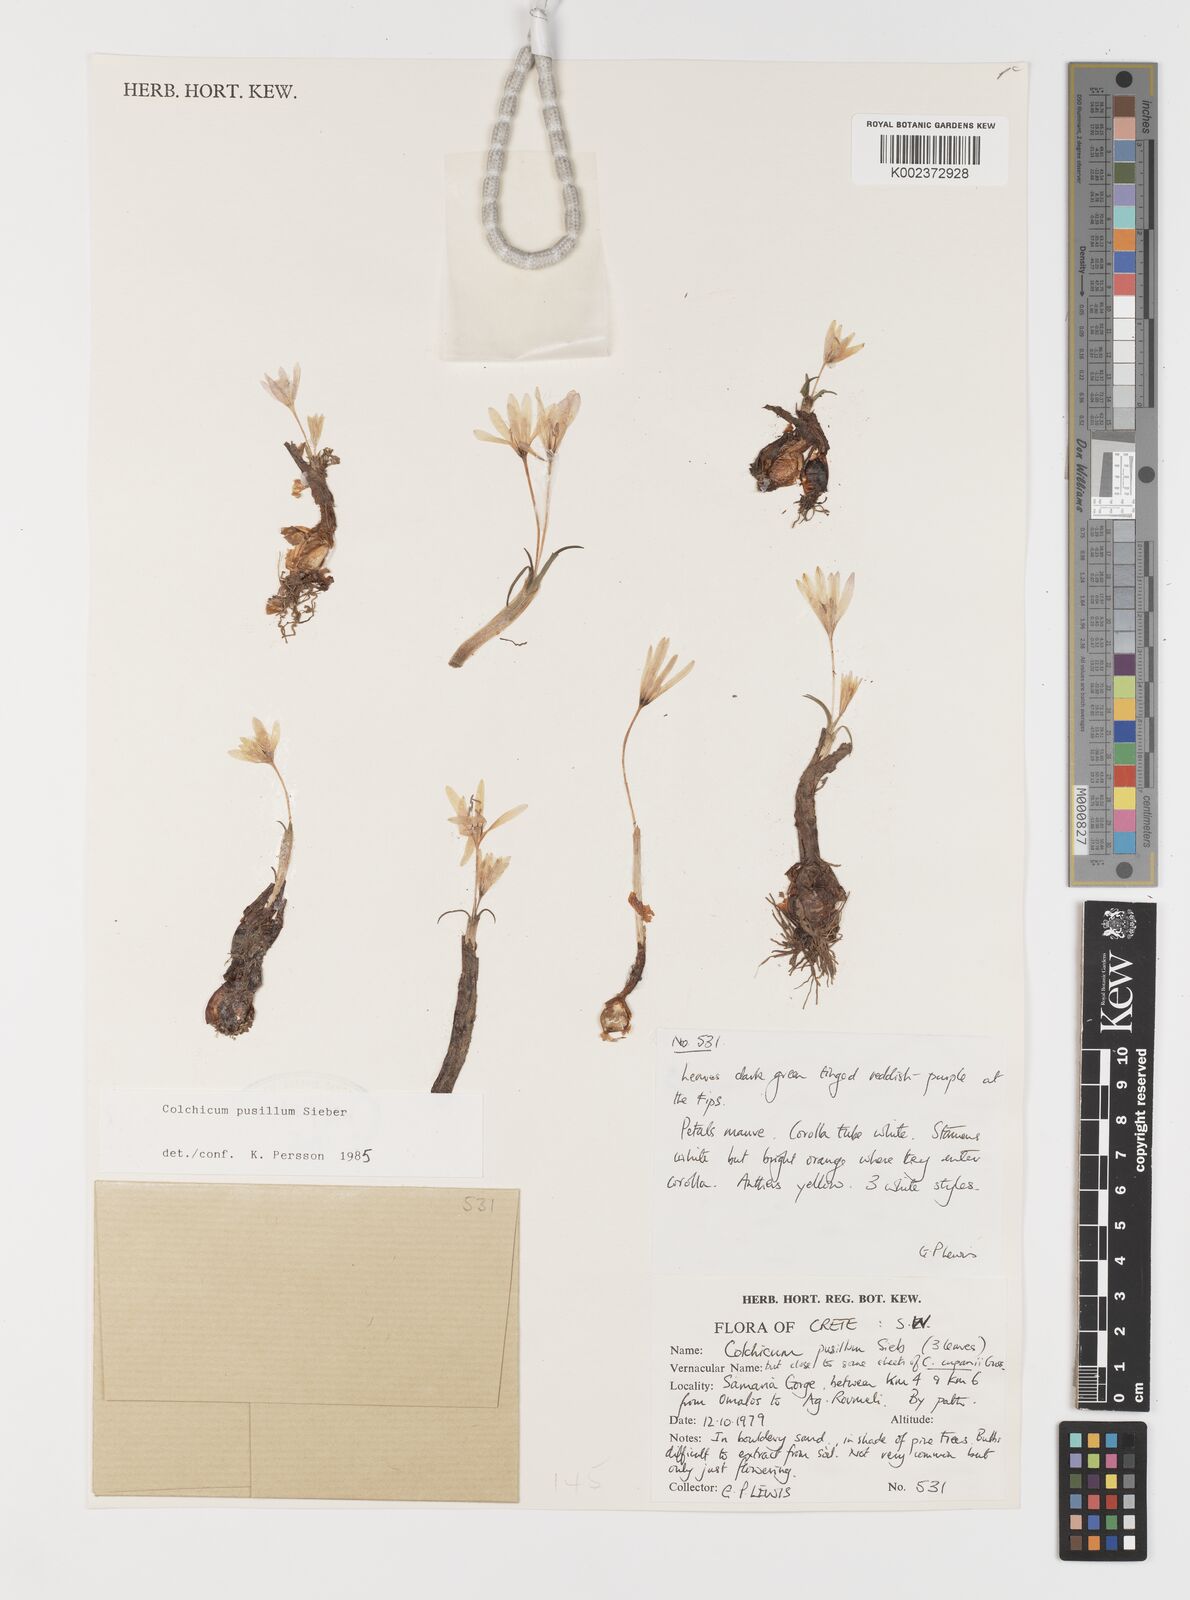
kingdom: Plantae
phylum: Tracheophyta
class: Liliopsida
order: Liliales
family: Colchicaceae
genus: Colchicum
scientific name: Colchicum pusillum
